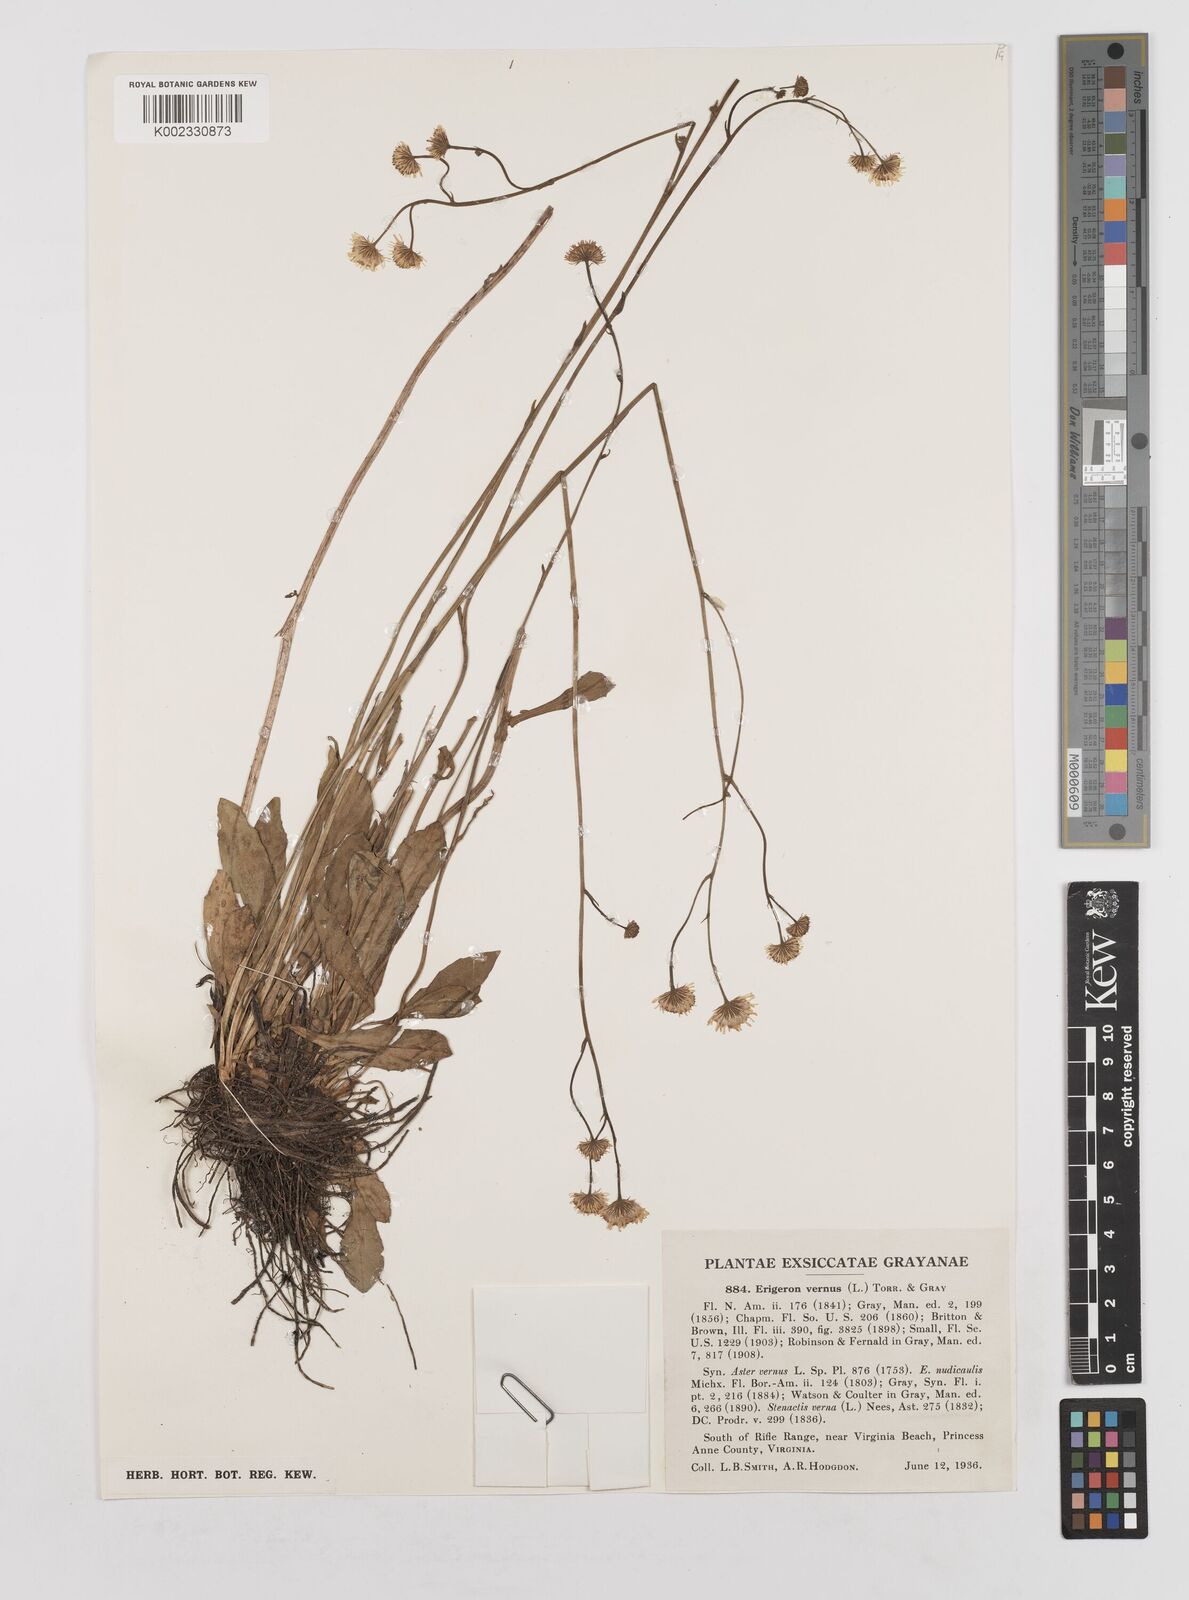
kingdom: Plantae
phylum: Tracheophyta
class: Magnoliopsida
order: Asterales
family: Asteraceae
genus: Erigeron
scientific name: Erigeron vernus
